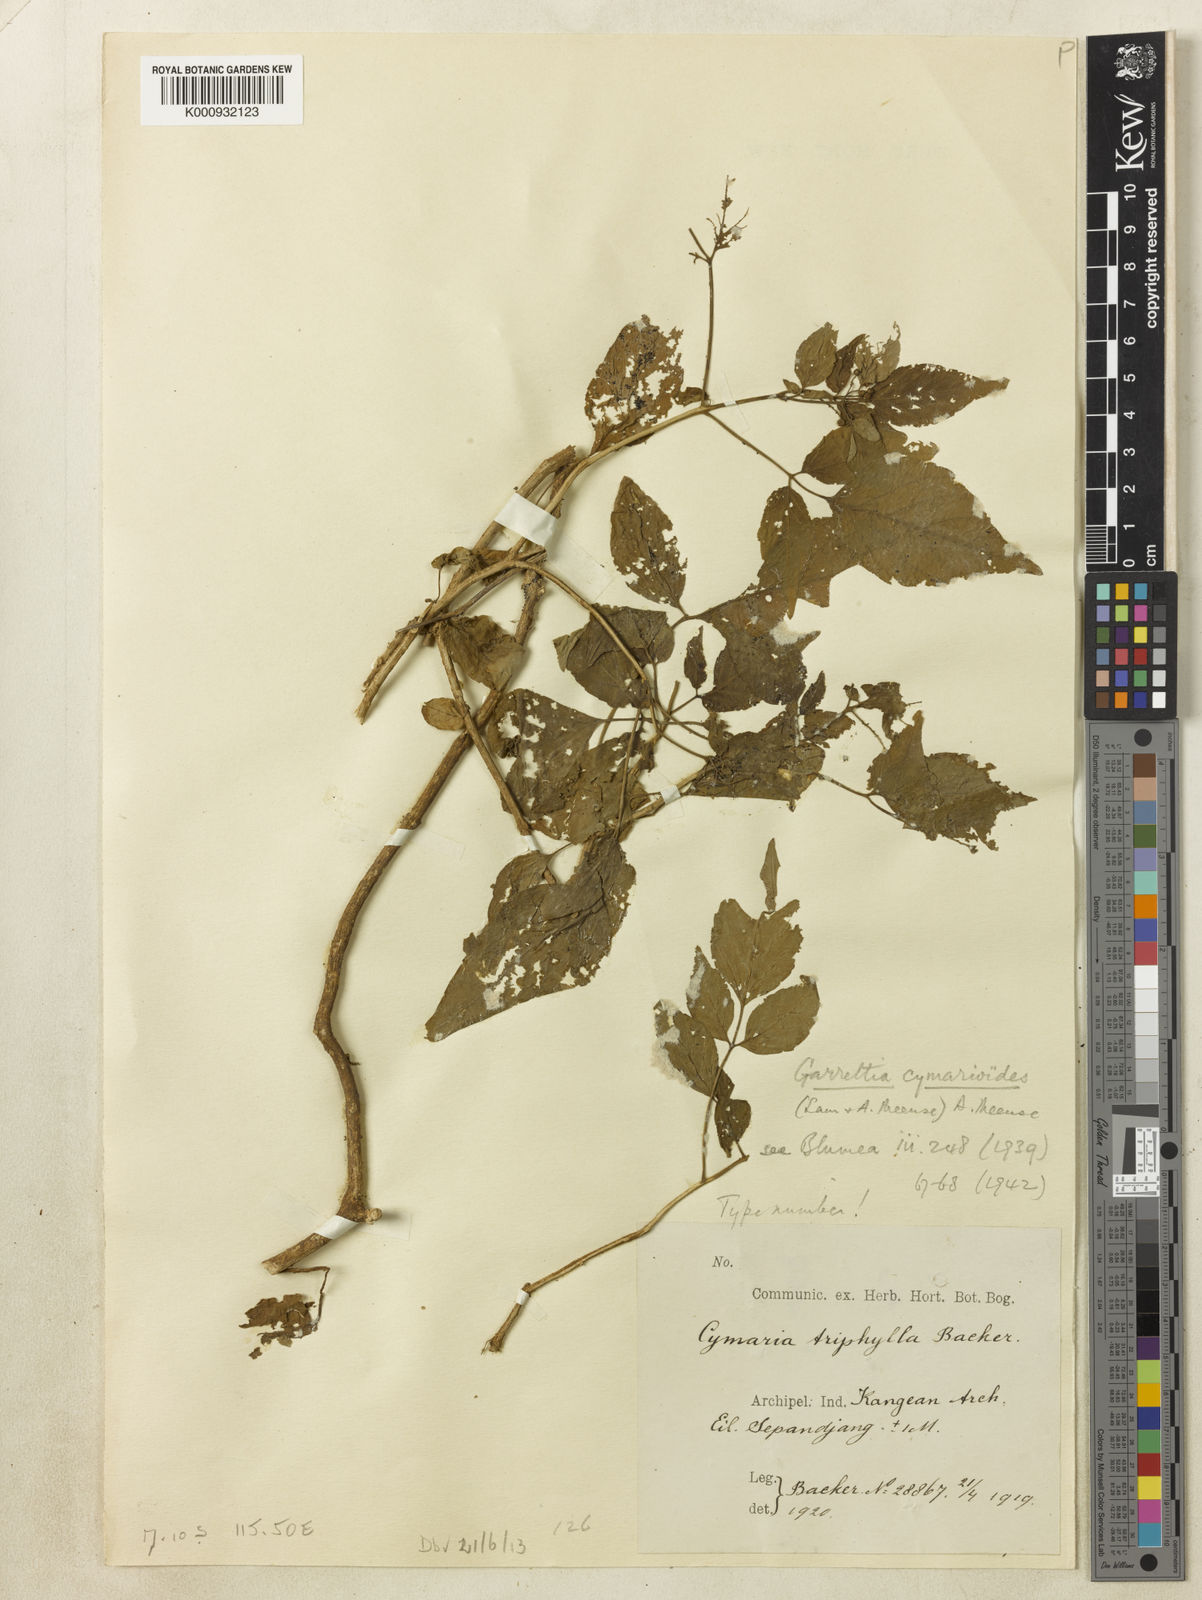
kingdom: Plantae
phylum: Tracheophyta
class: Magnoliopsida
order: Lamiales
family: Lamiaceae
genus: Garrettia
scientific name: Garrettia cymarioides
